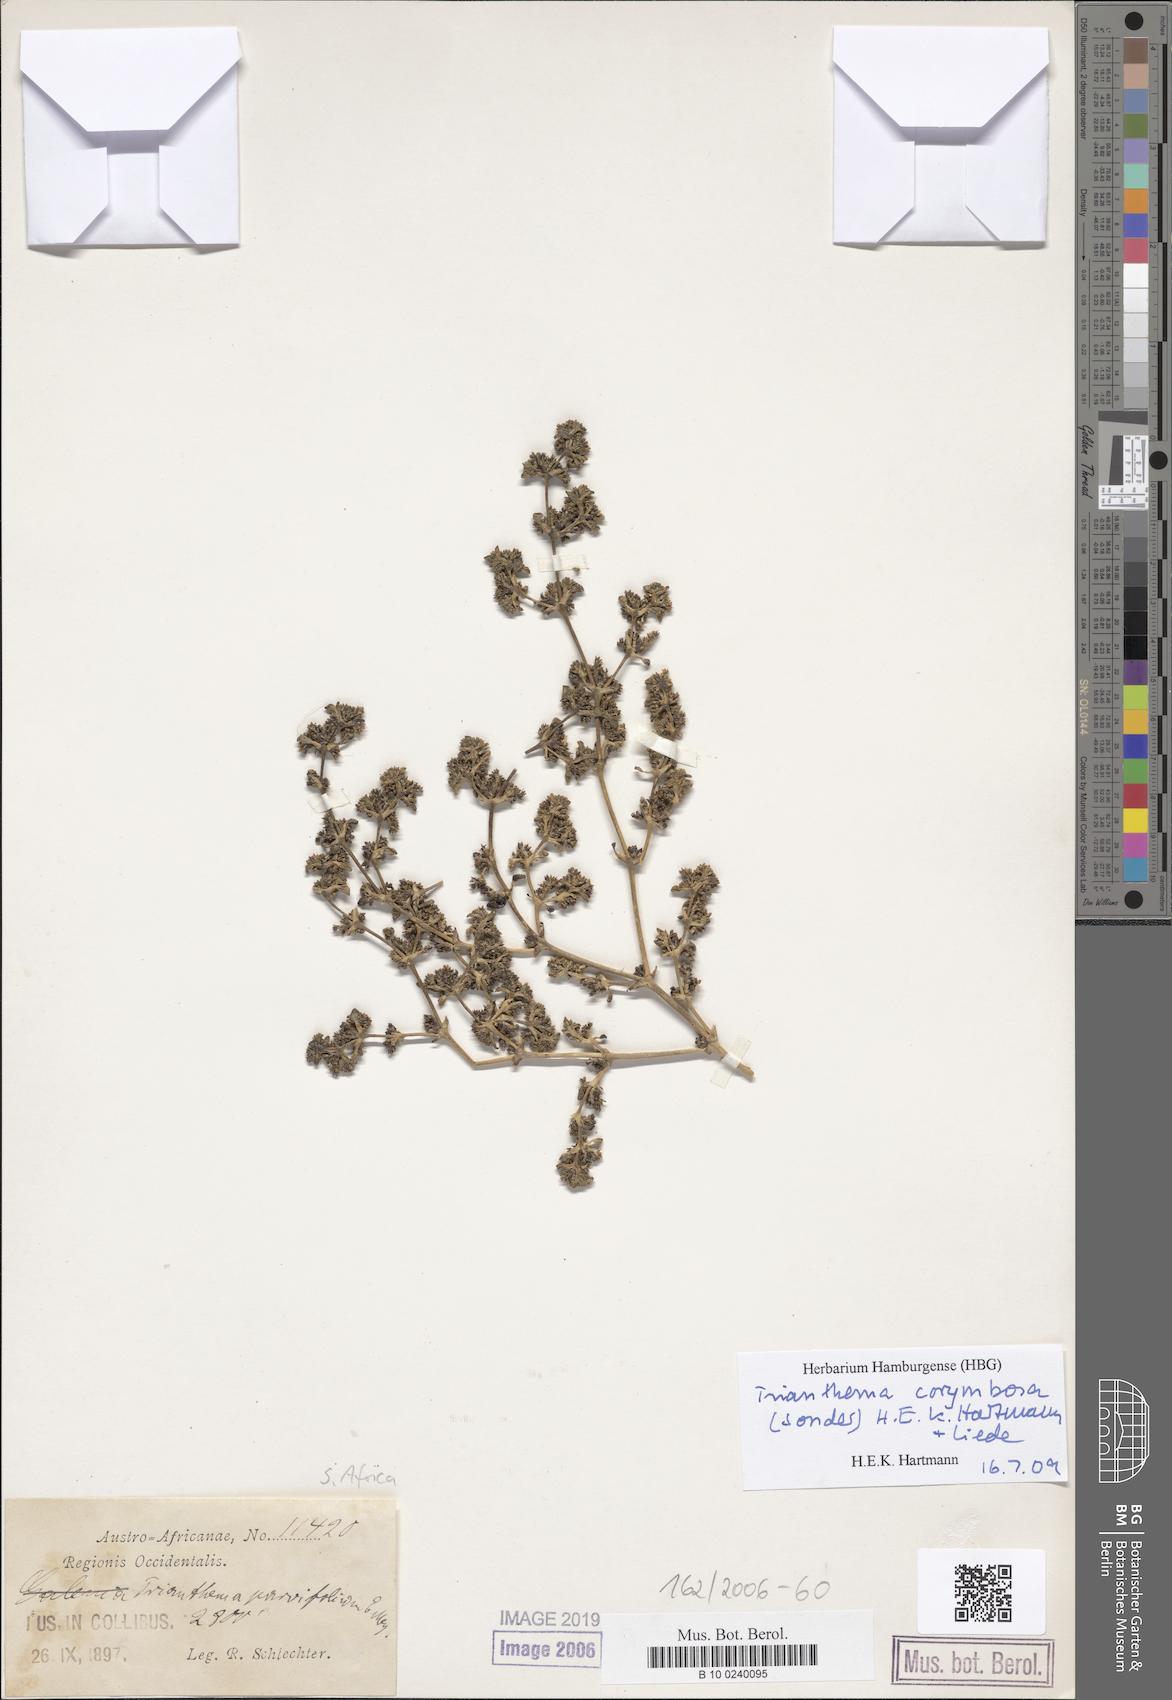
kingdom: Plantae
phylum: Tracheophyta
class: Magnoliopsida
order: Caryophyllales
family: Aizoaceae
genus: Trianthema
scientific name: Trianthema parvifolium
